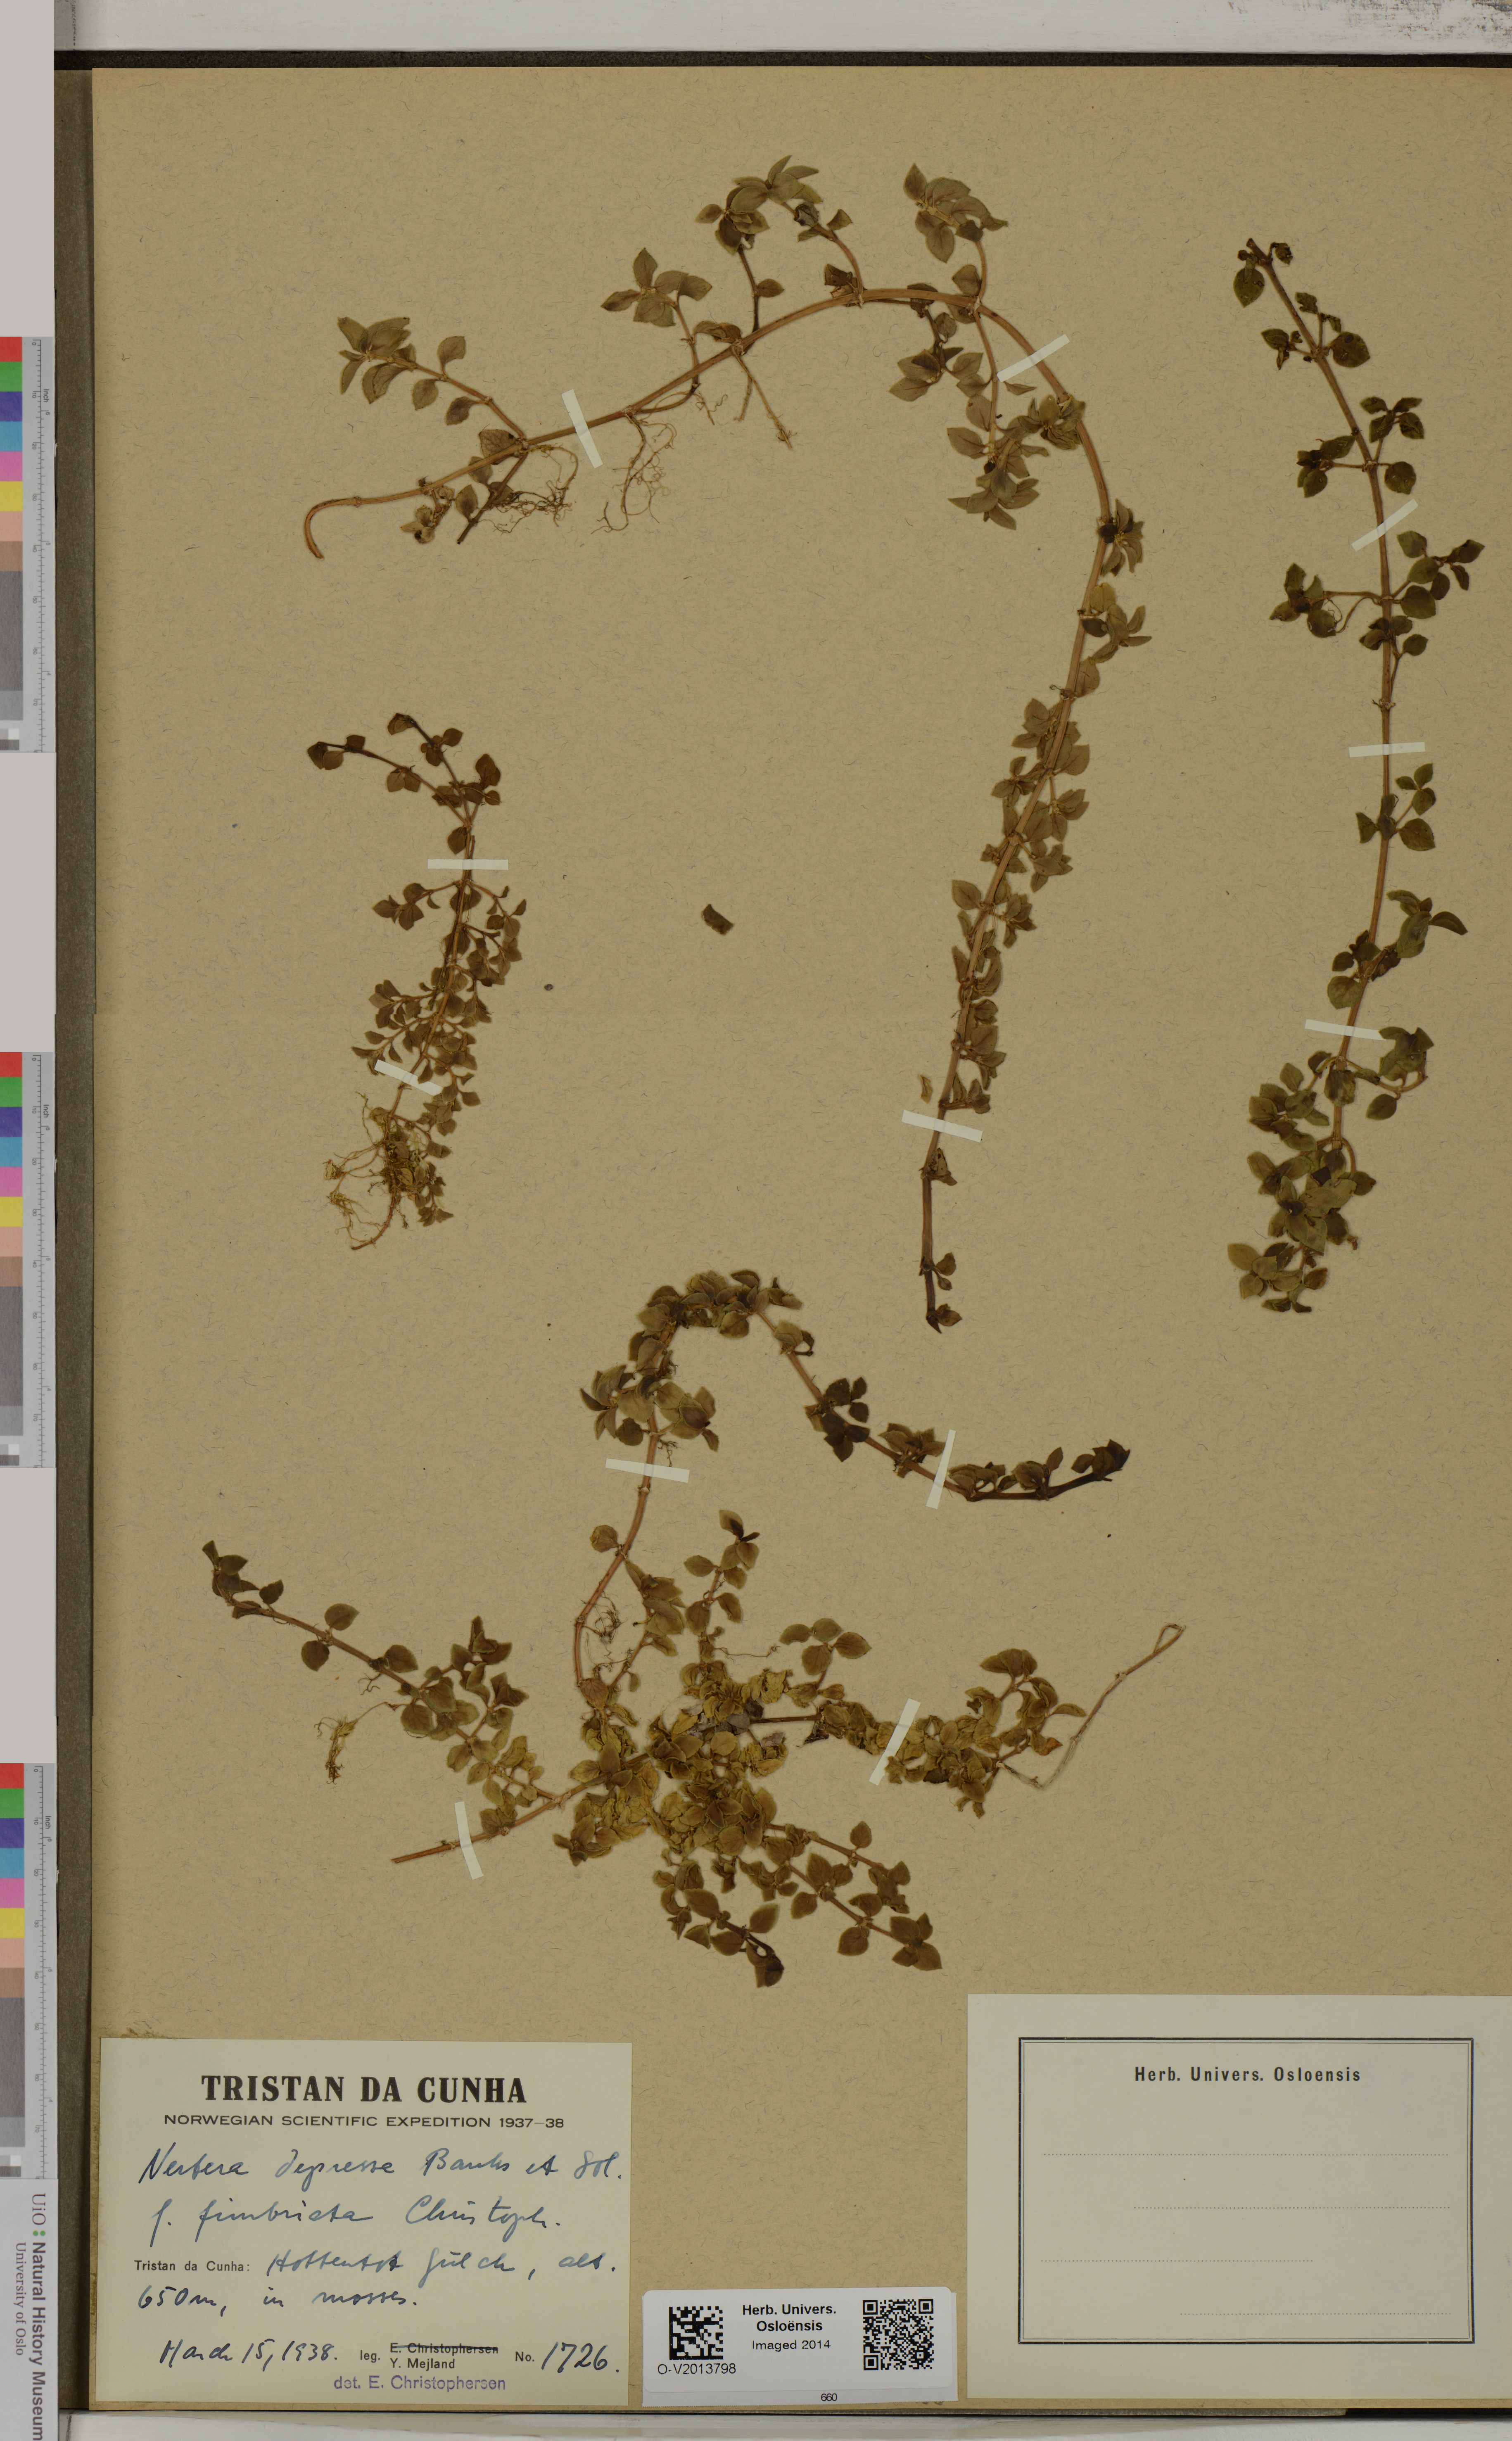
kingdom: Plantae
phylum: Tracheophyta
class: Magnoliopsida
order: Gentianales
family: Rubiaceae
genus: Nertera
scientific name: Nertera granadensis
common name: Beadplant
